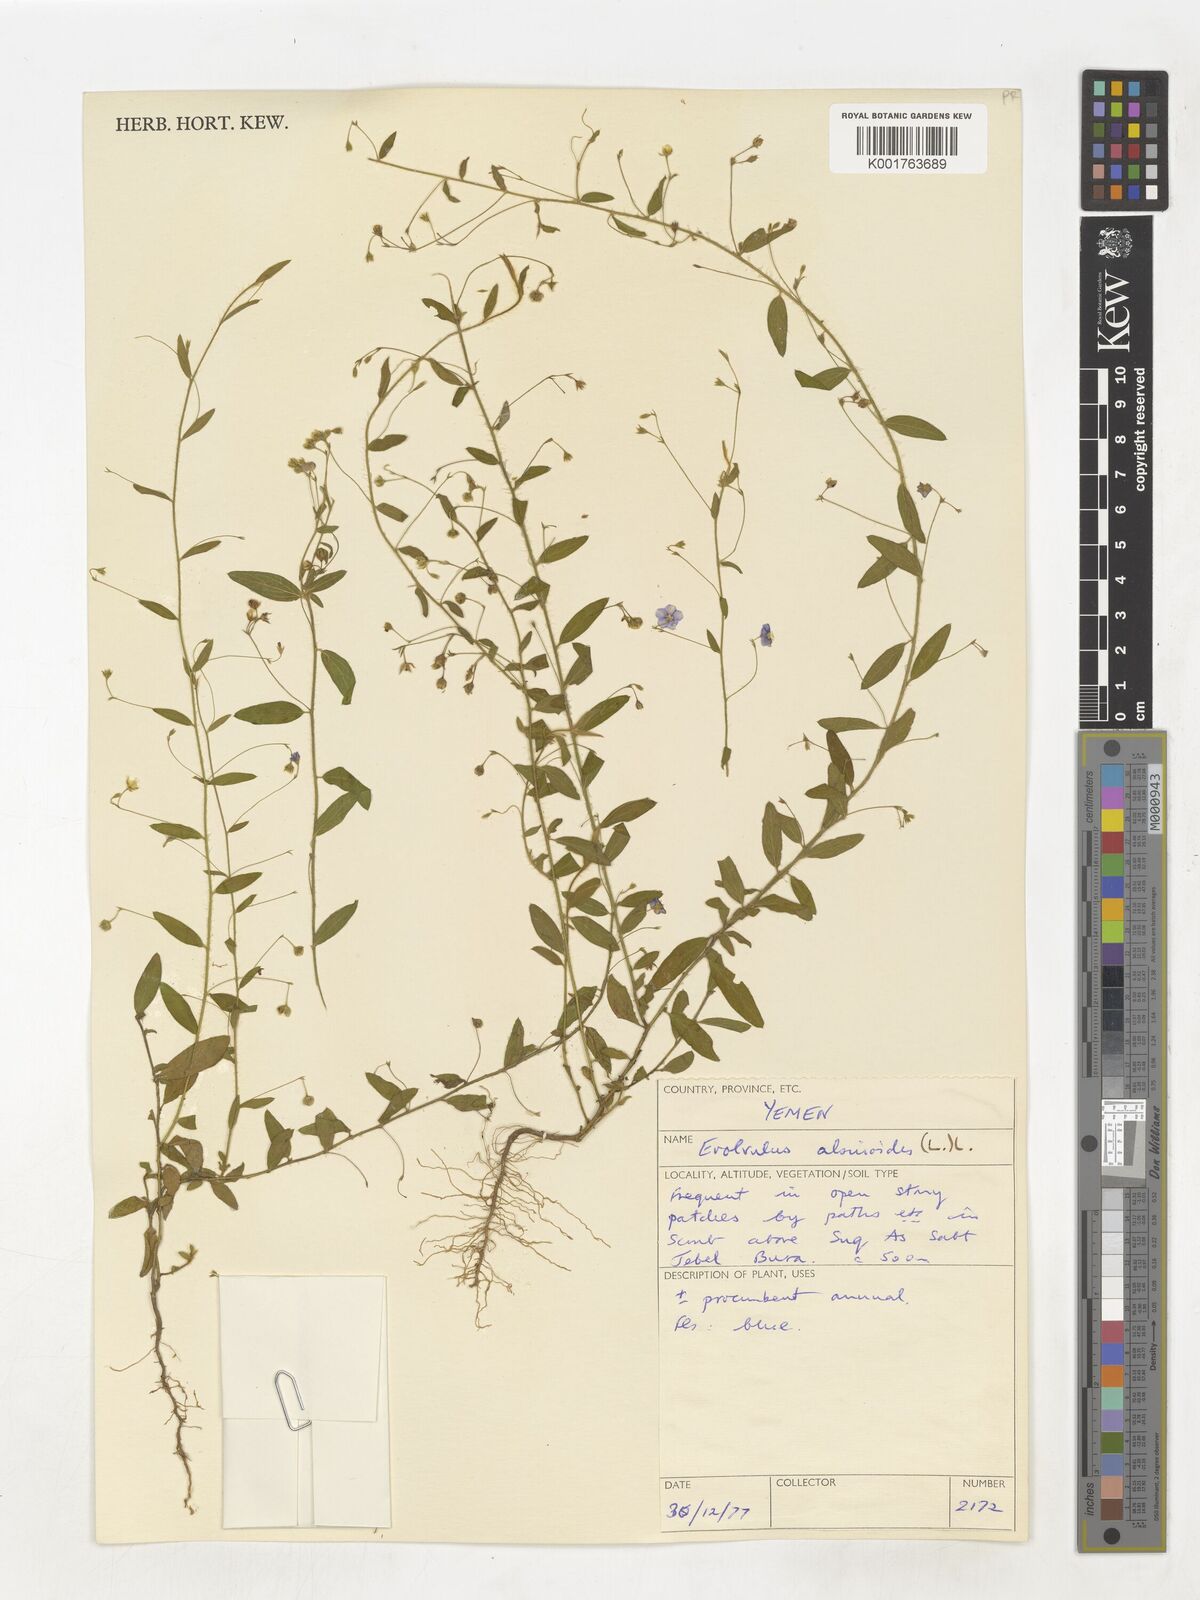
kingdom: Plantae
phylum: Tracheophyta
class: Magnoliopsida
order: Solanales
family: Convolvulaceae
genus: Evolvulus
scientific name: Evolvulus alsinoides
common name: Slender dwarf morning-glory
